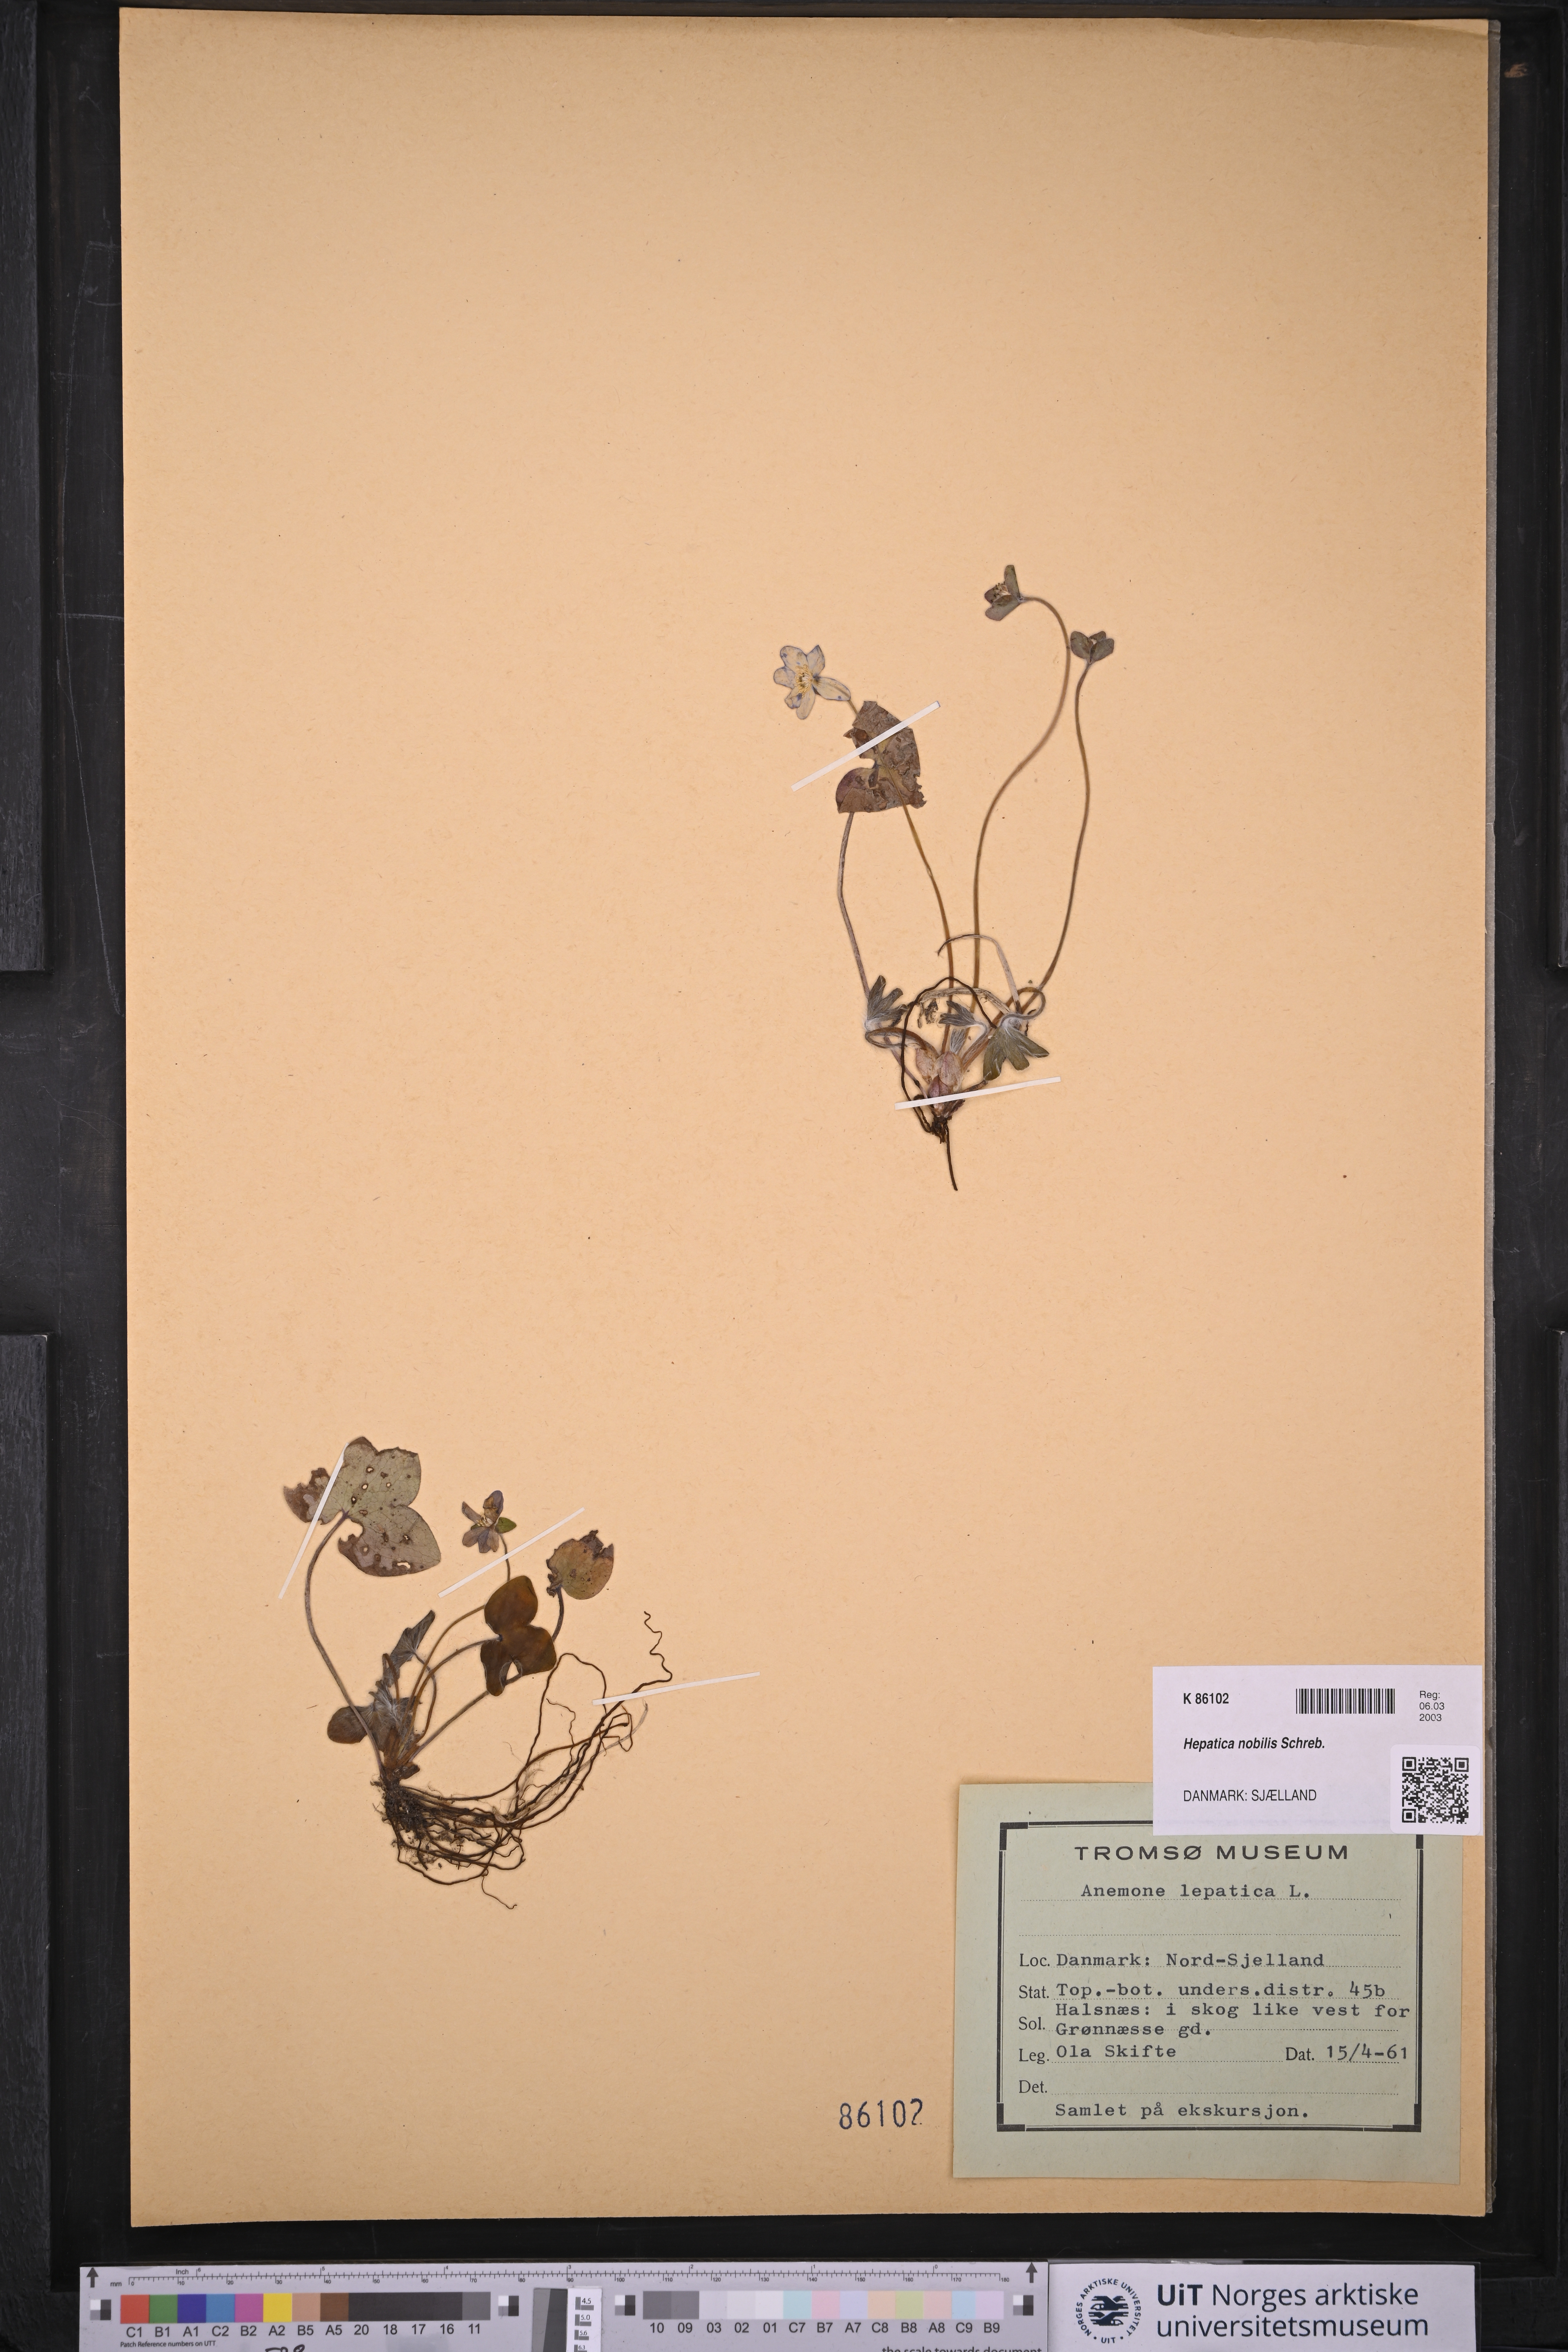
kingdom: Plantae
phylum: Tracheophyta
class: Magnoliopsida
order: Ranunculales
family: Ranunculaceae
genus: Hepatica
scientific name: Hepatica nobilis
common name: Liverleaf
